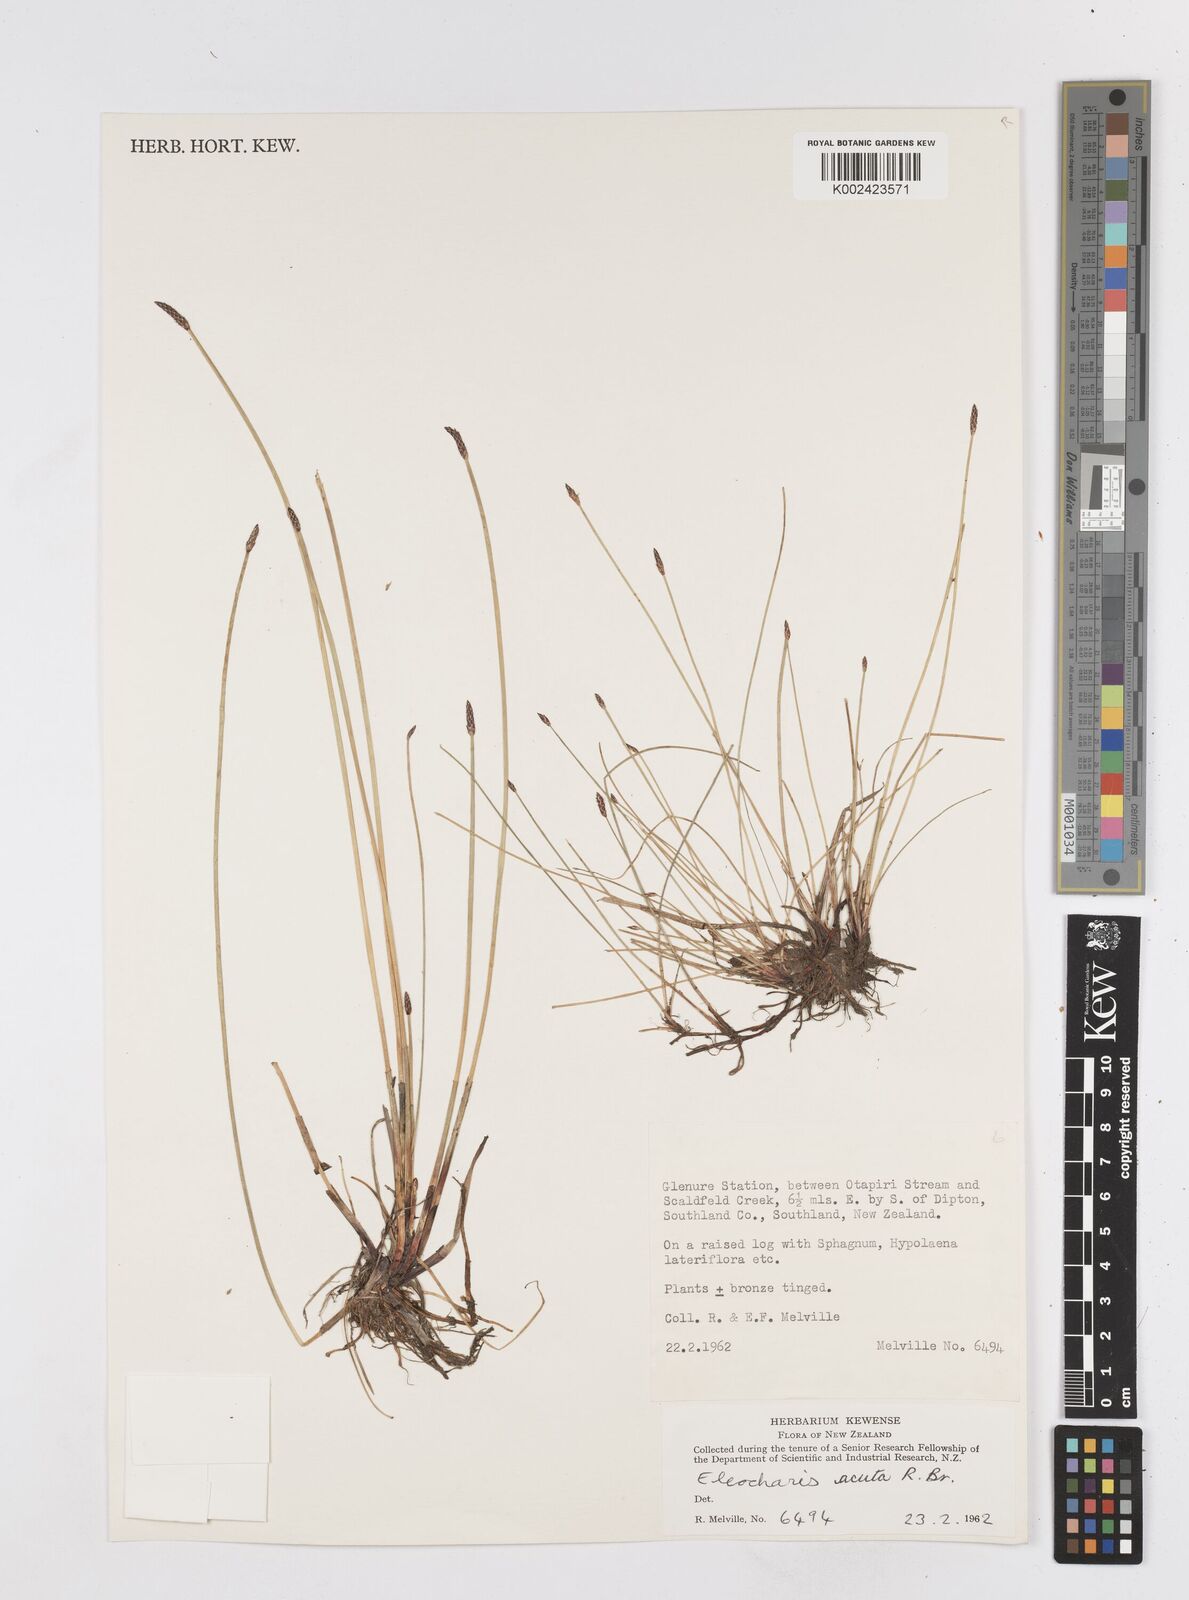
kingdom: Plantae
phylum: Tracheophyta
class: Liliopsida
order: Poales
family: Cyperaceae
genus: Eleocharis
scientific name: Eleocharis acuta
